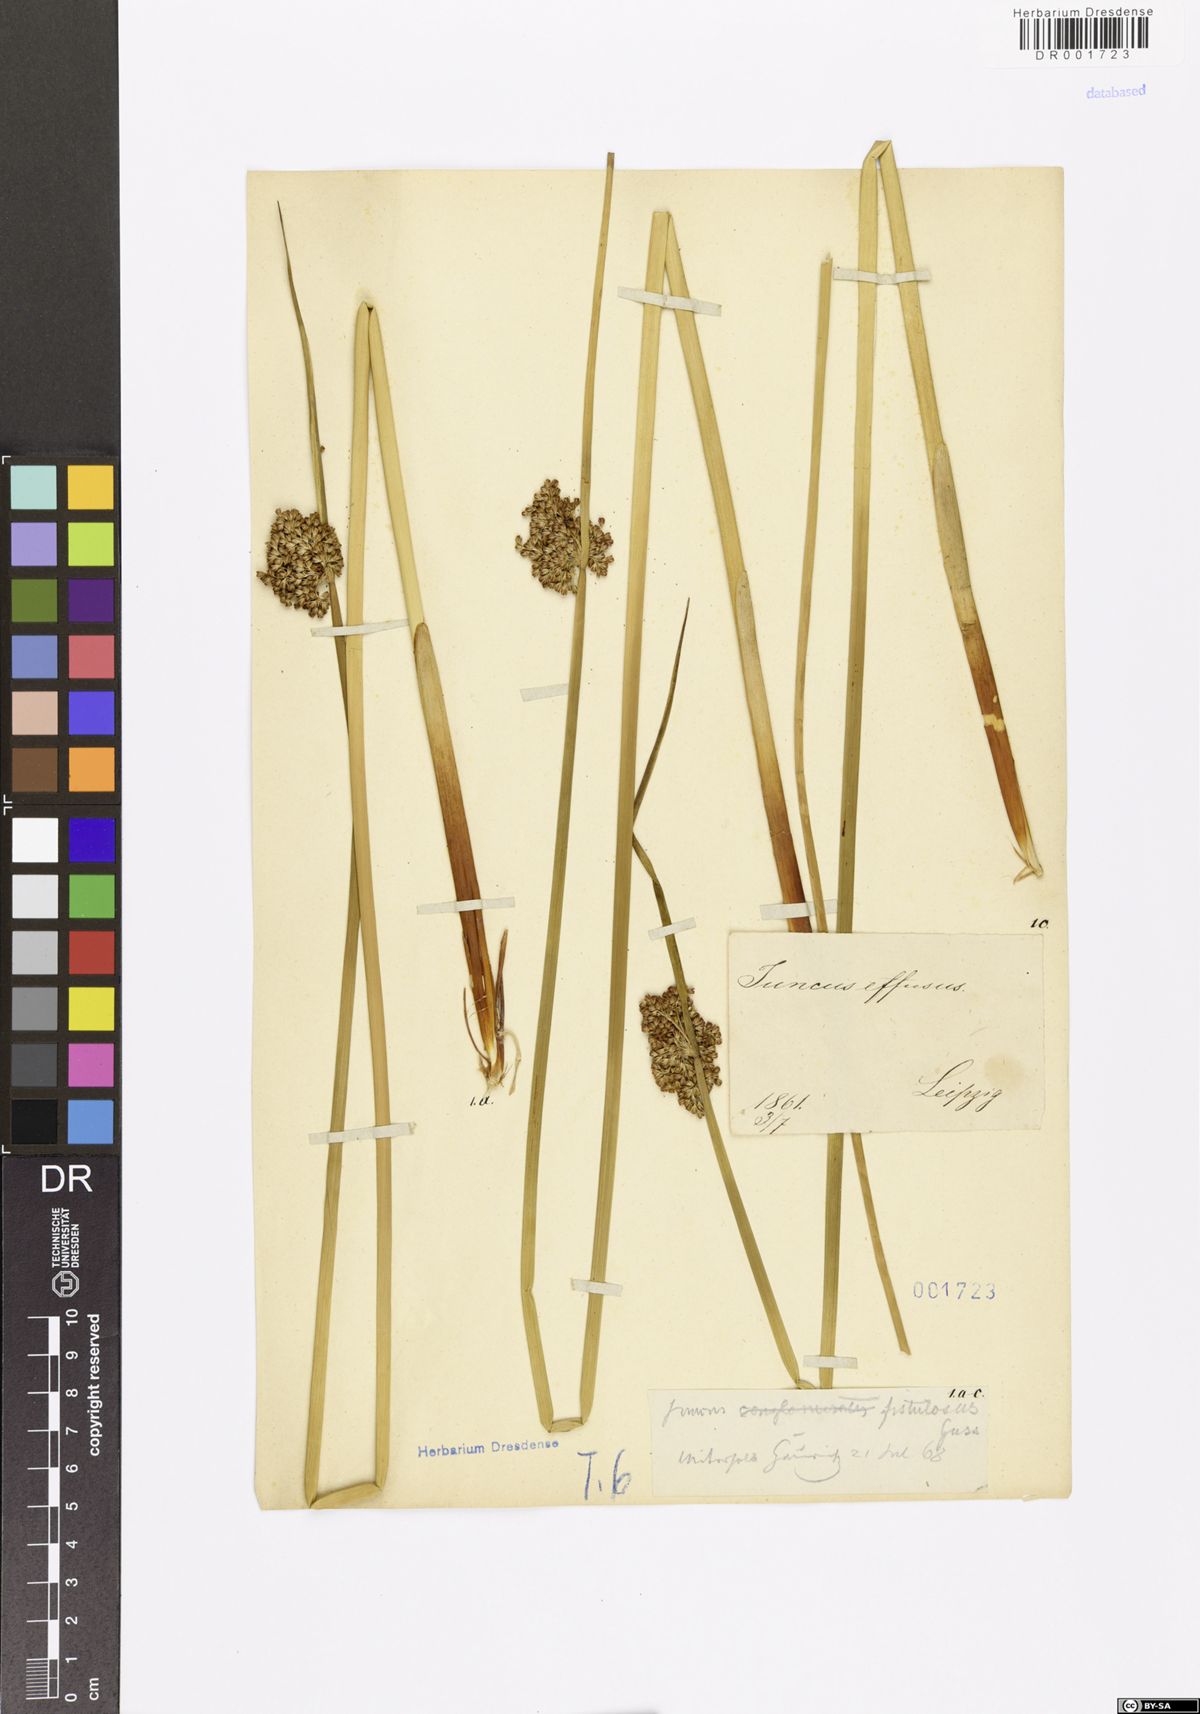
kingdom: Plantae
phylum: Tracheophyta
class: Liliopsida
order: Poales
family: Juncaceae
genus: Juncus
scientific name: Juncus effusus
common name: Soft rush
